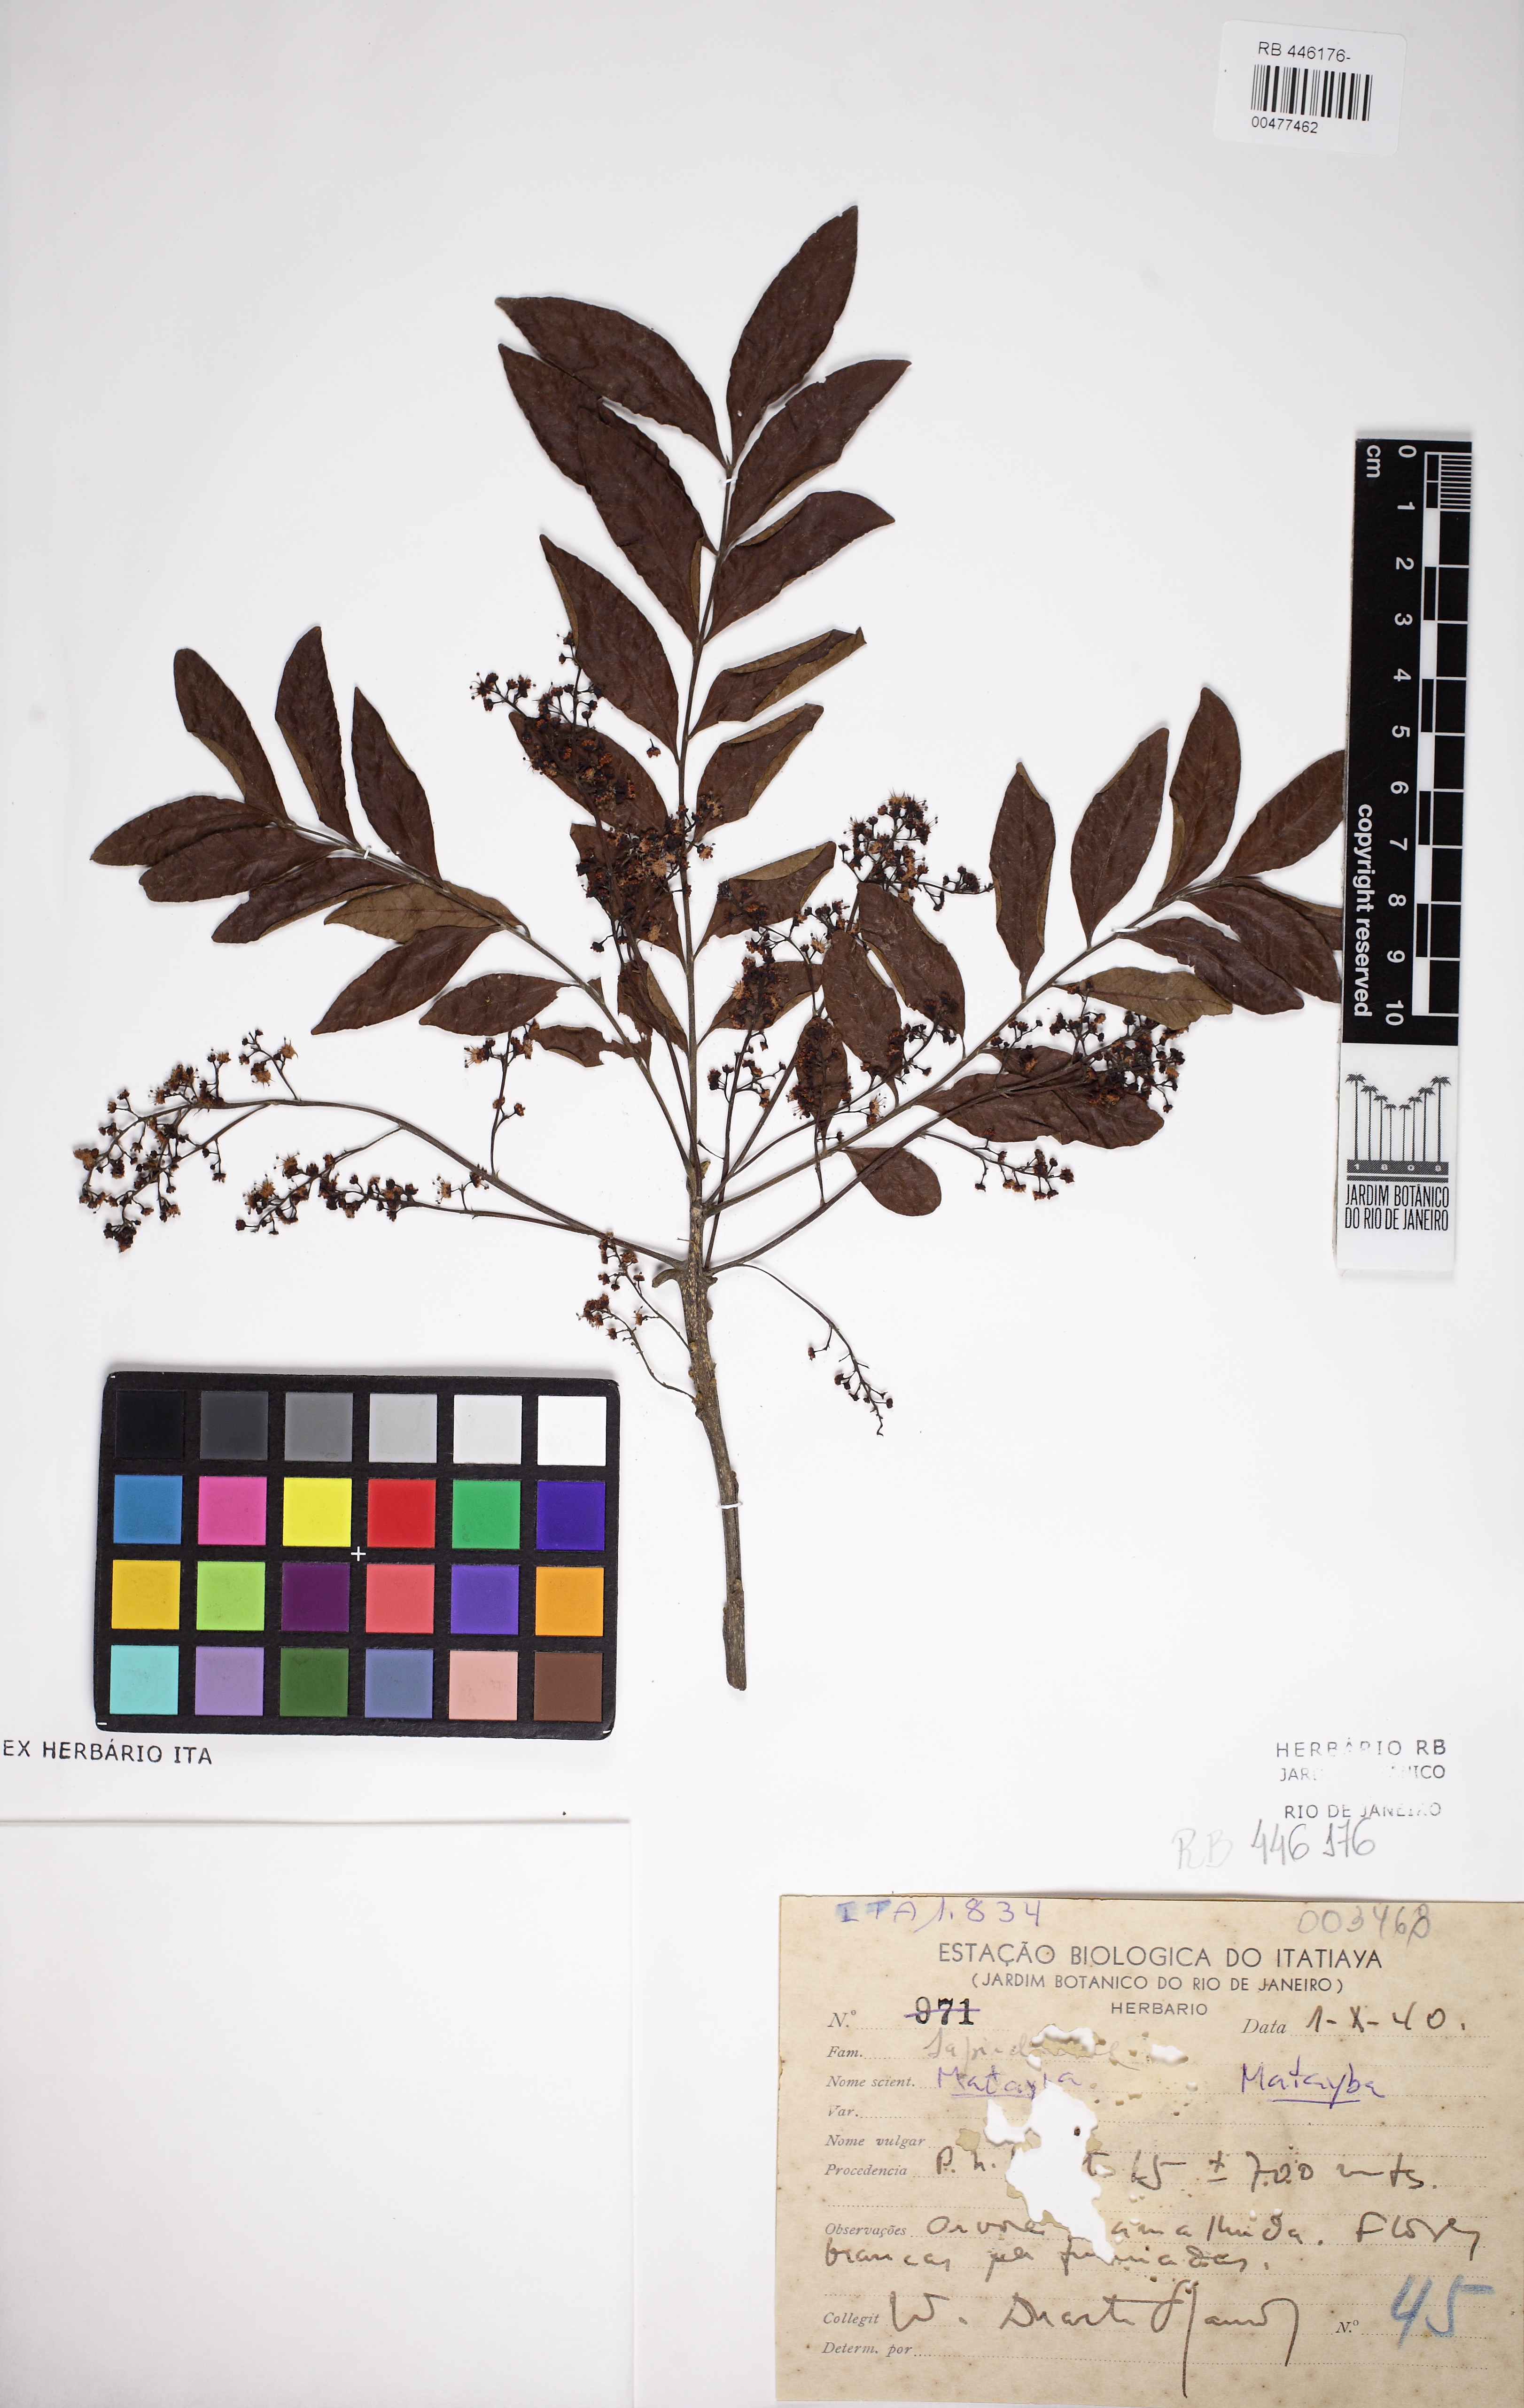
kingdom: Plantae
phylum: Tracheophyta
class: Magnoliopsida
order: Sapindales
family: Sapindaceae
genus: Matayba
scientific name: Matayba
